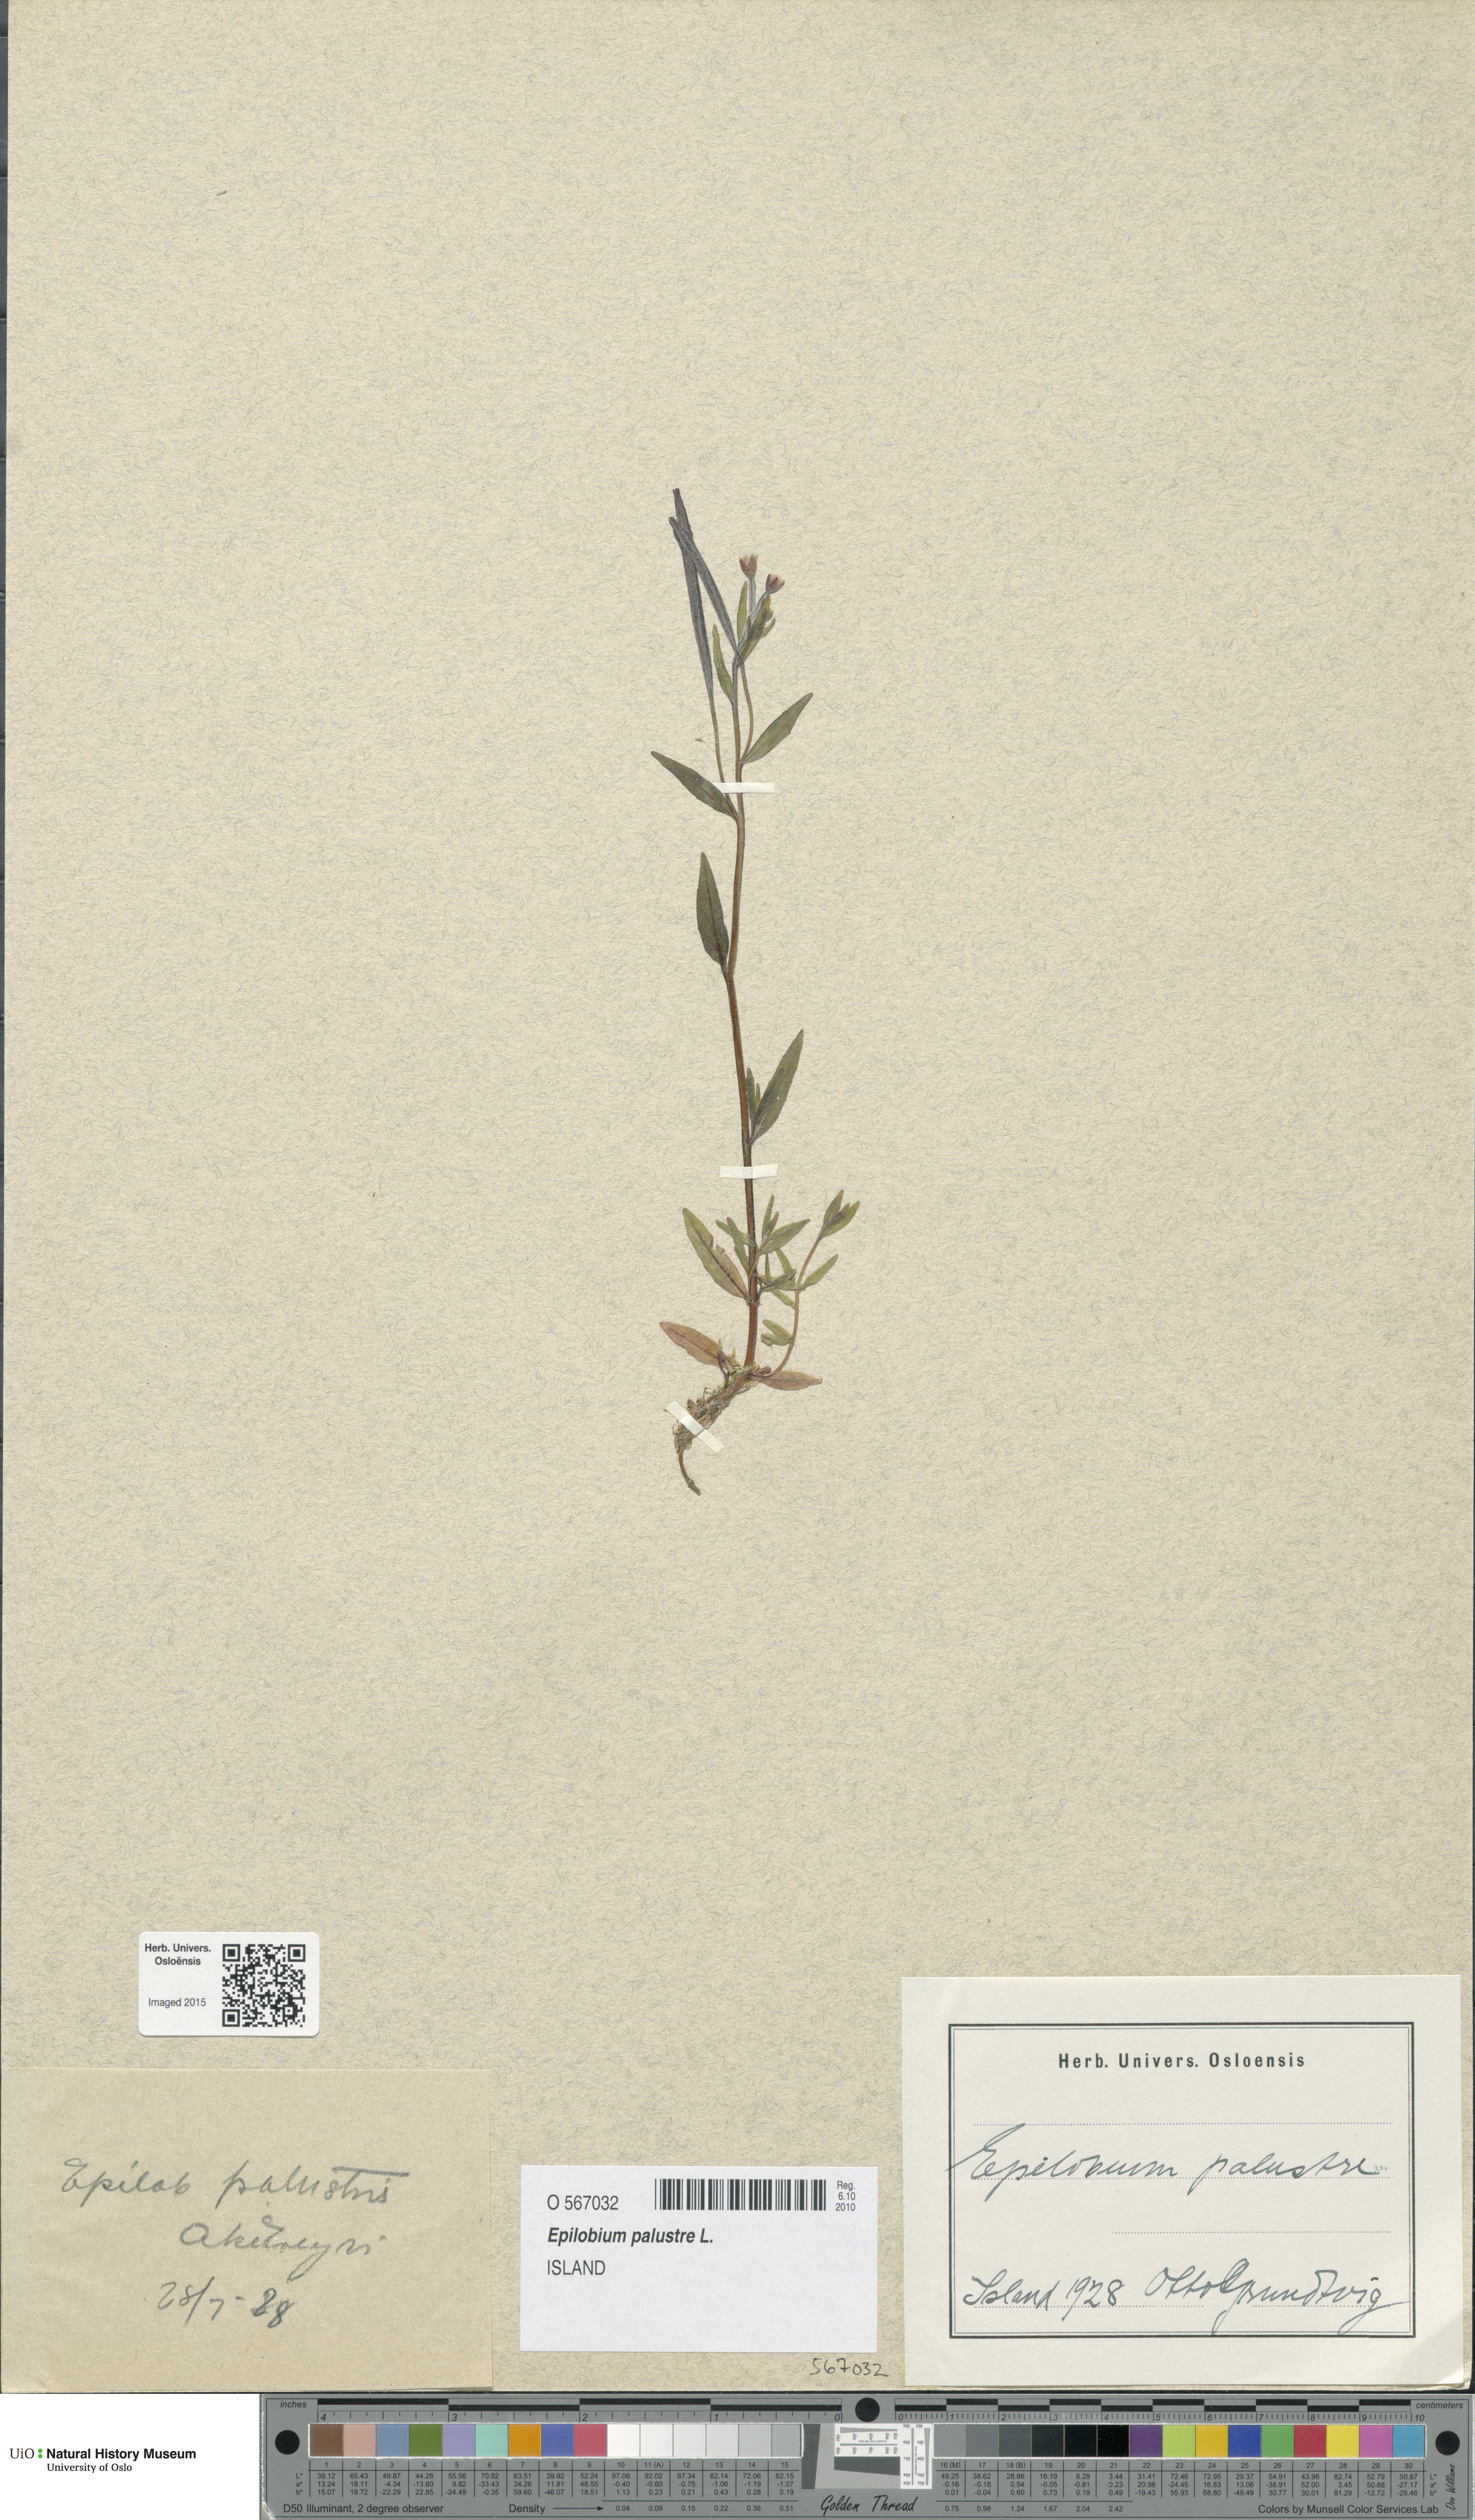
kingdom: Plantae
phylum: Tracheophyta
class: Magnoliopsida
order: Myrtales
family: Onagraceae
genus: Epilobium
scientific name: Epilobium palustre
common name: Marsh willowherb
